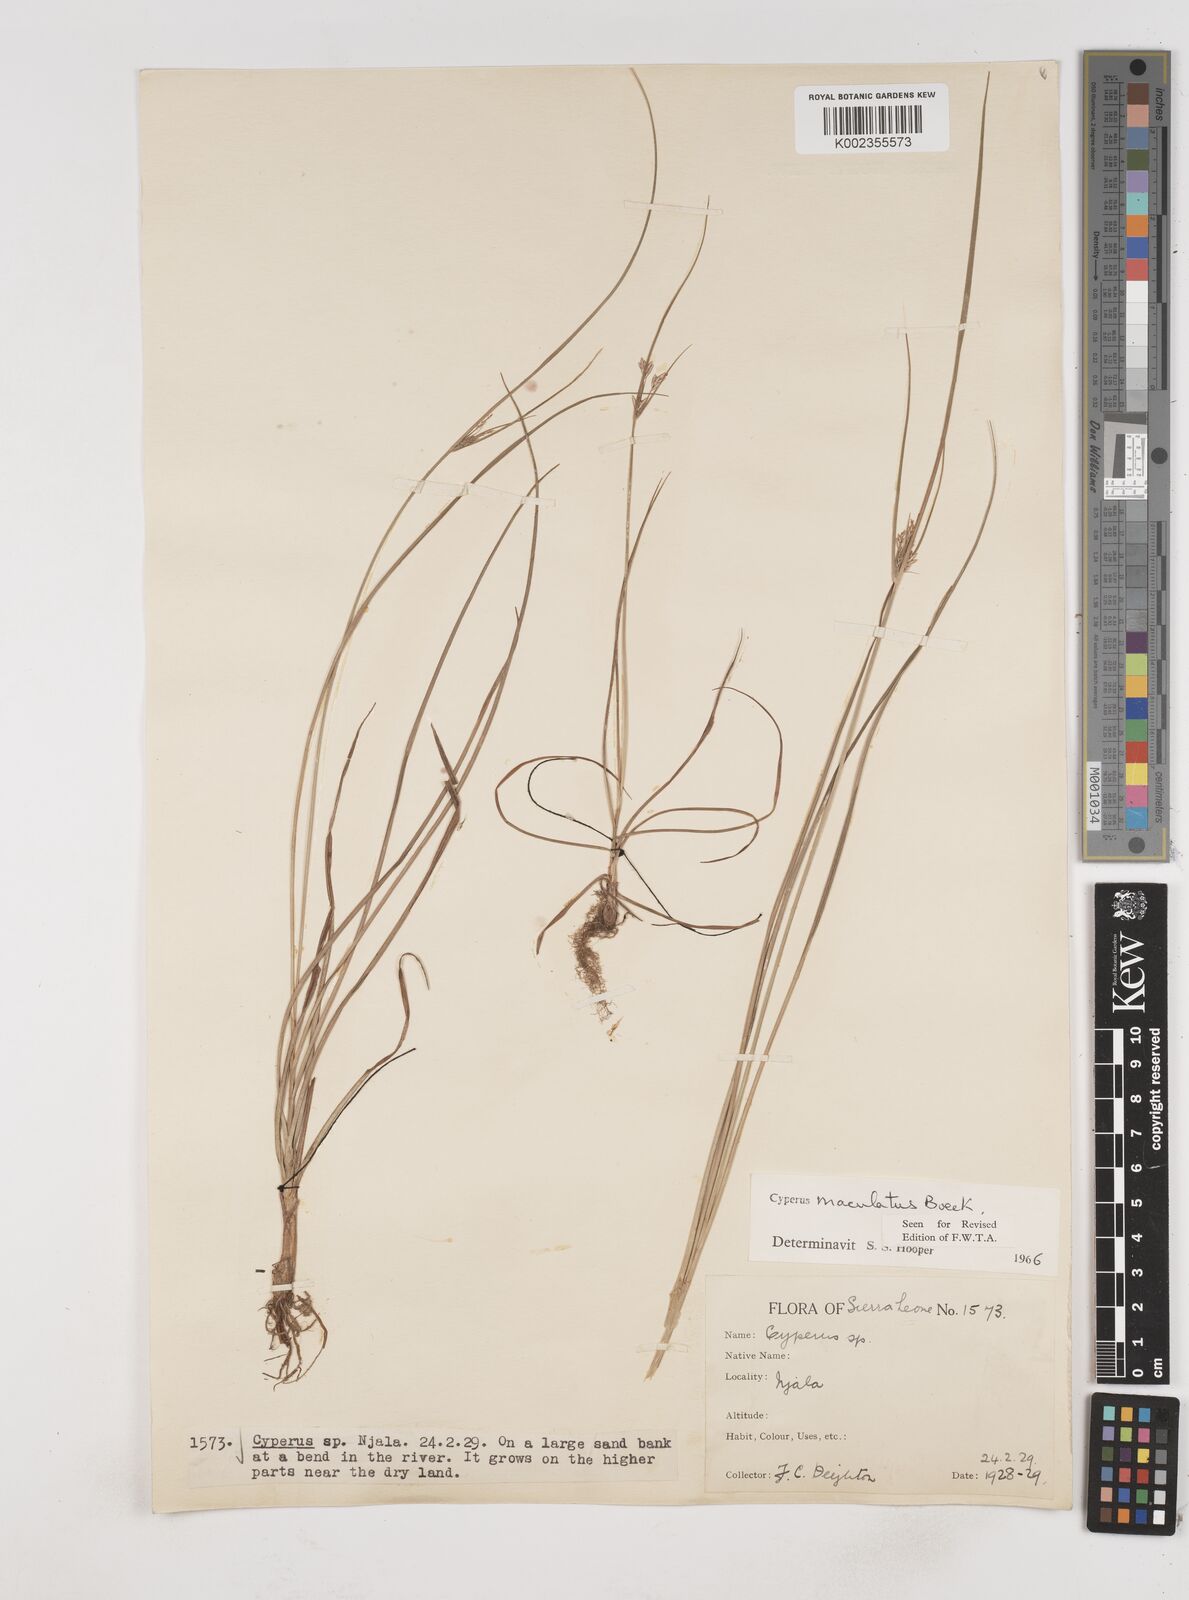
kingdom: Plantae
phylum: Tracheophyta
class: Liliopsida
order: Poales
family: Cyperaceae
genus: Cyperus
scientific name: Cyperus maculatus
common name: Maculated sedge
